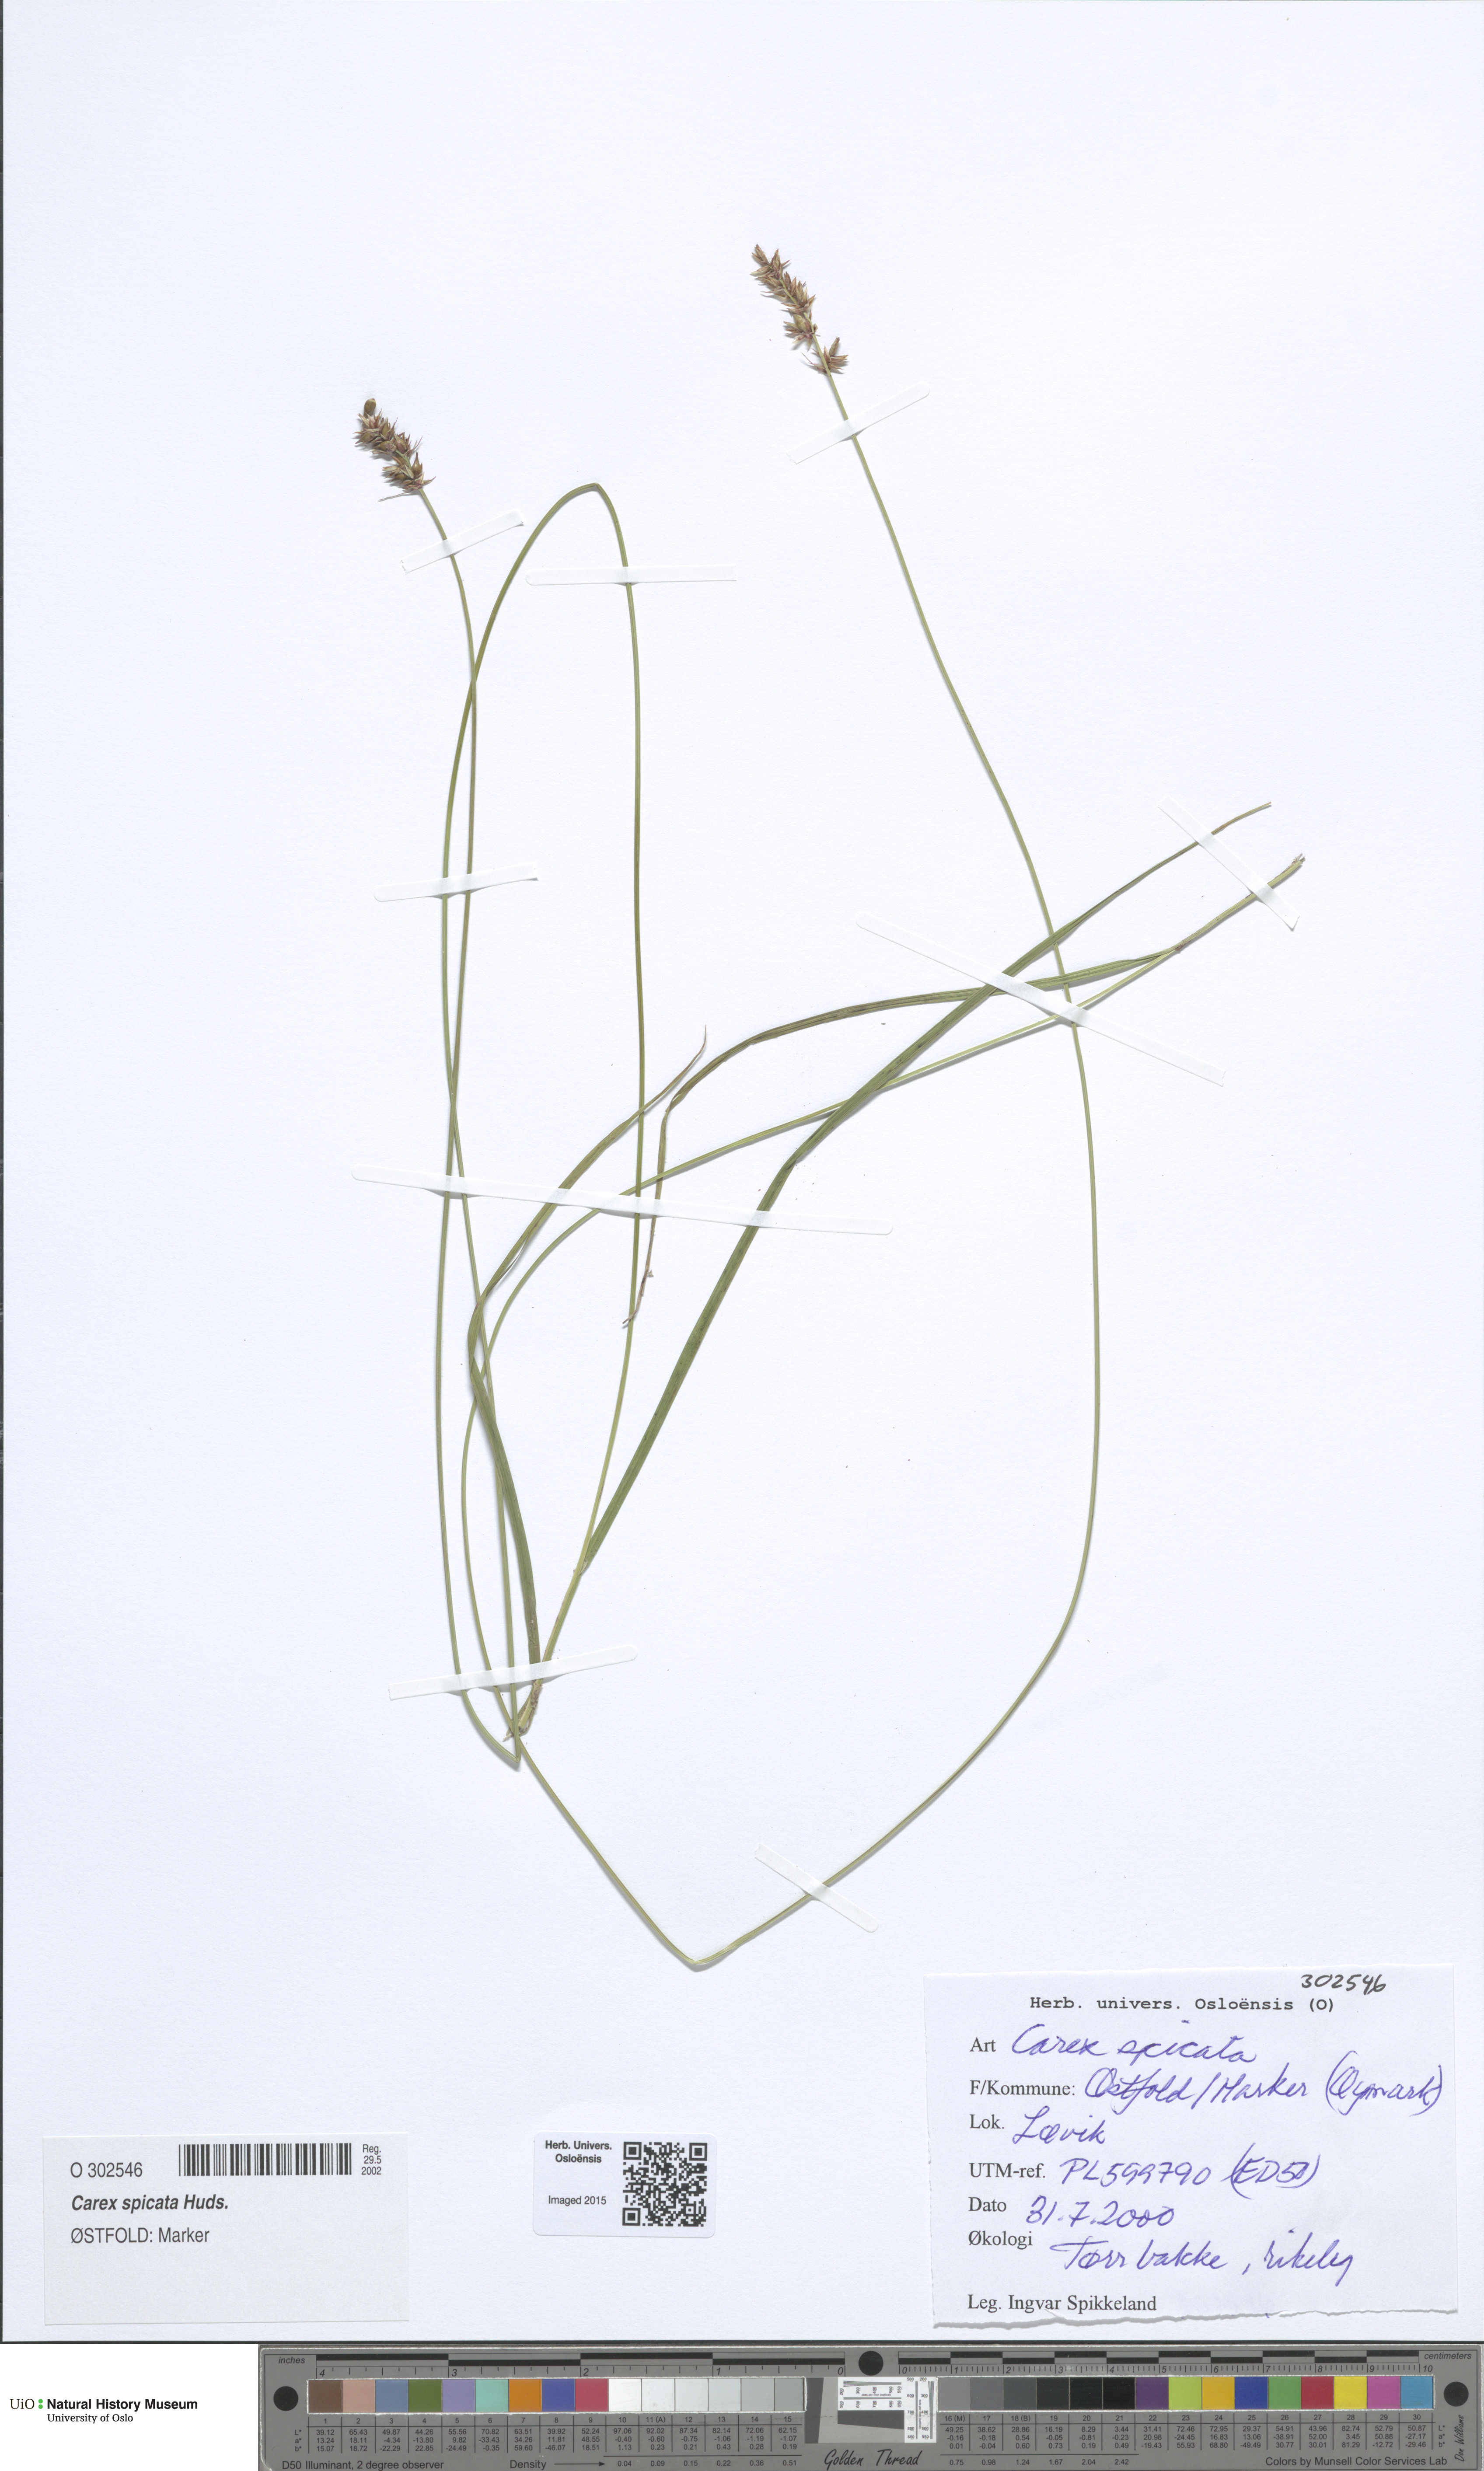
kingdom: Plantae
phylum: Tracheophyta
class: Liliopsida
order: Poales
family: Cyperaceae
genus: Carex
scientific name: Carex spicata
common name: Spiked sedge
